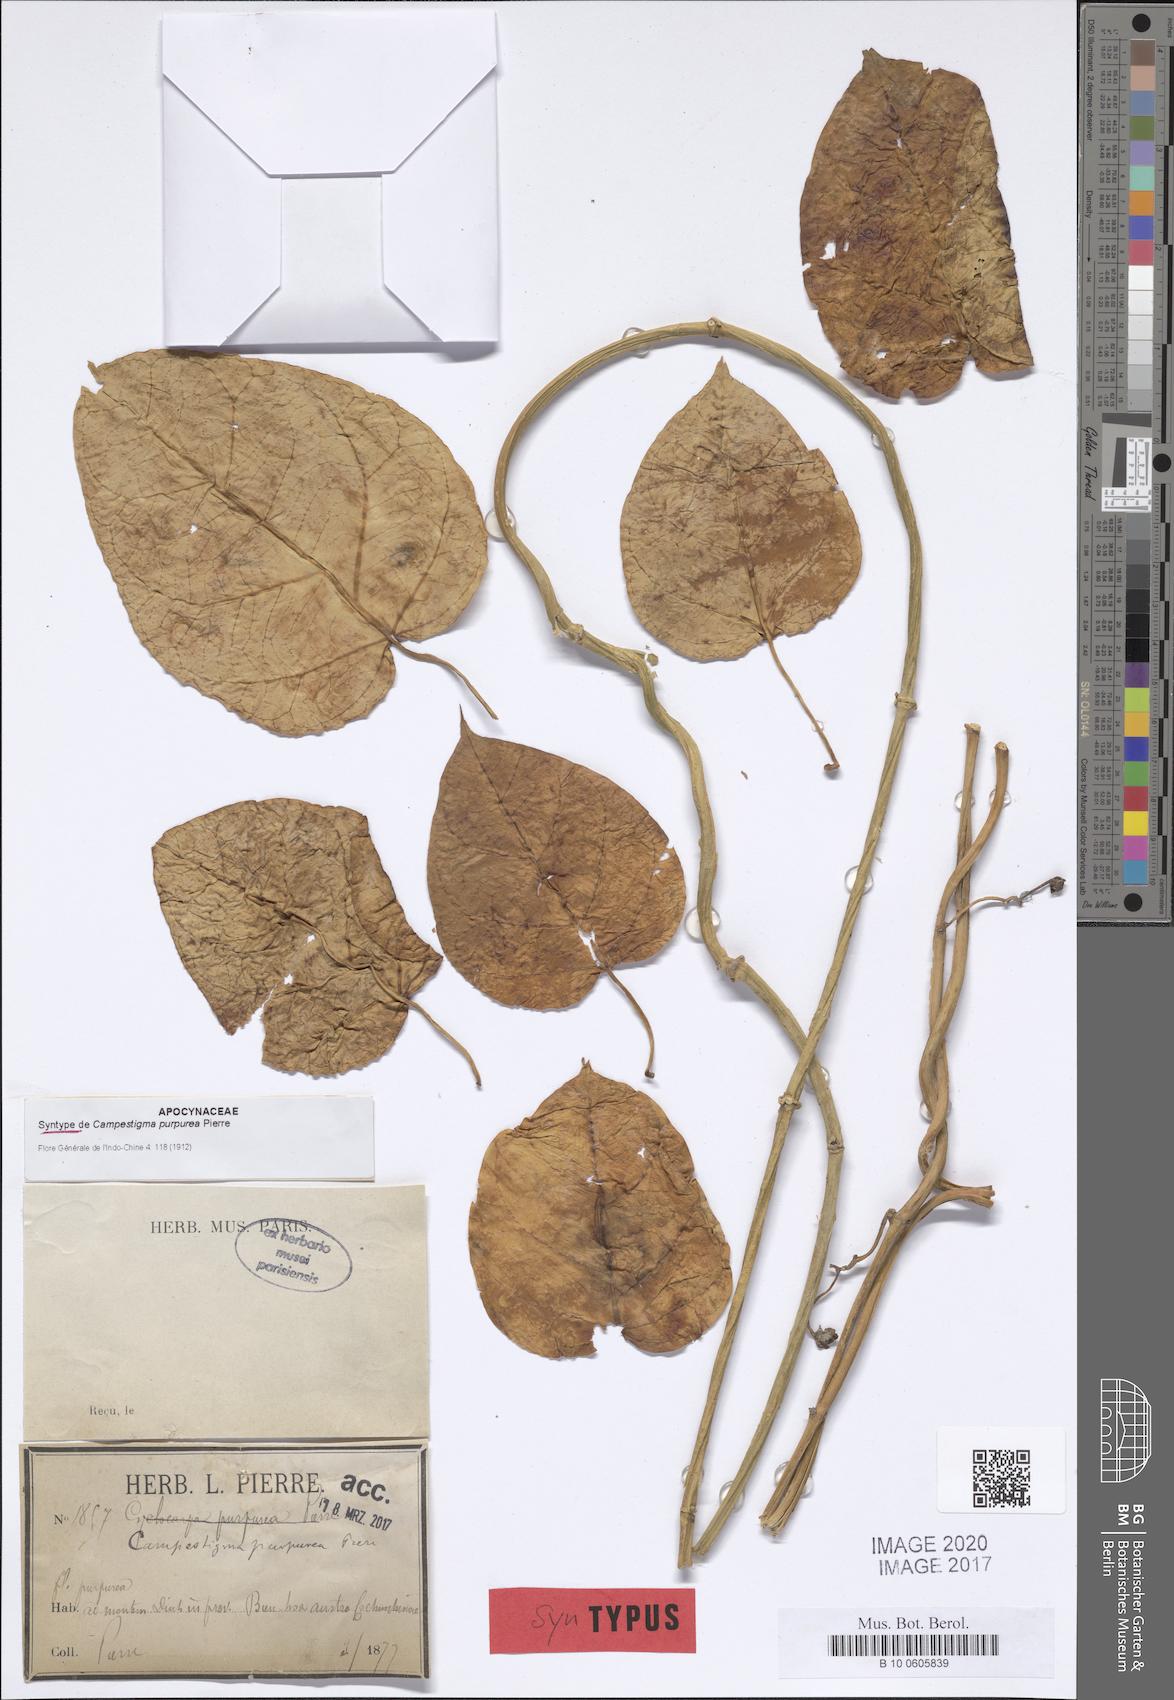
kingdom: Plantae
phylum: Tracheophyta
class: Magnoliopsida
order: Gentianales
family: Apocynaceae
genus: Campestigma
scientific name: Campestigma purpurea
